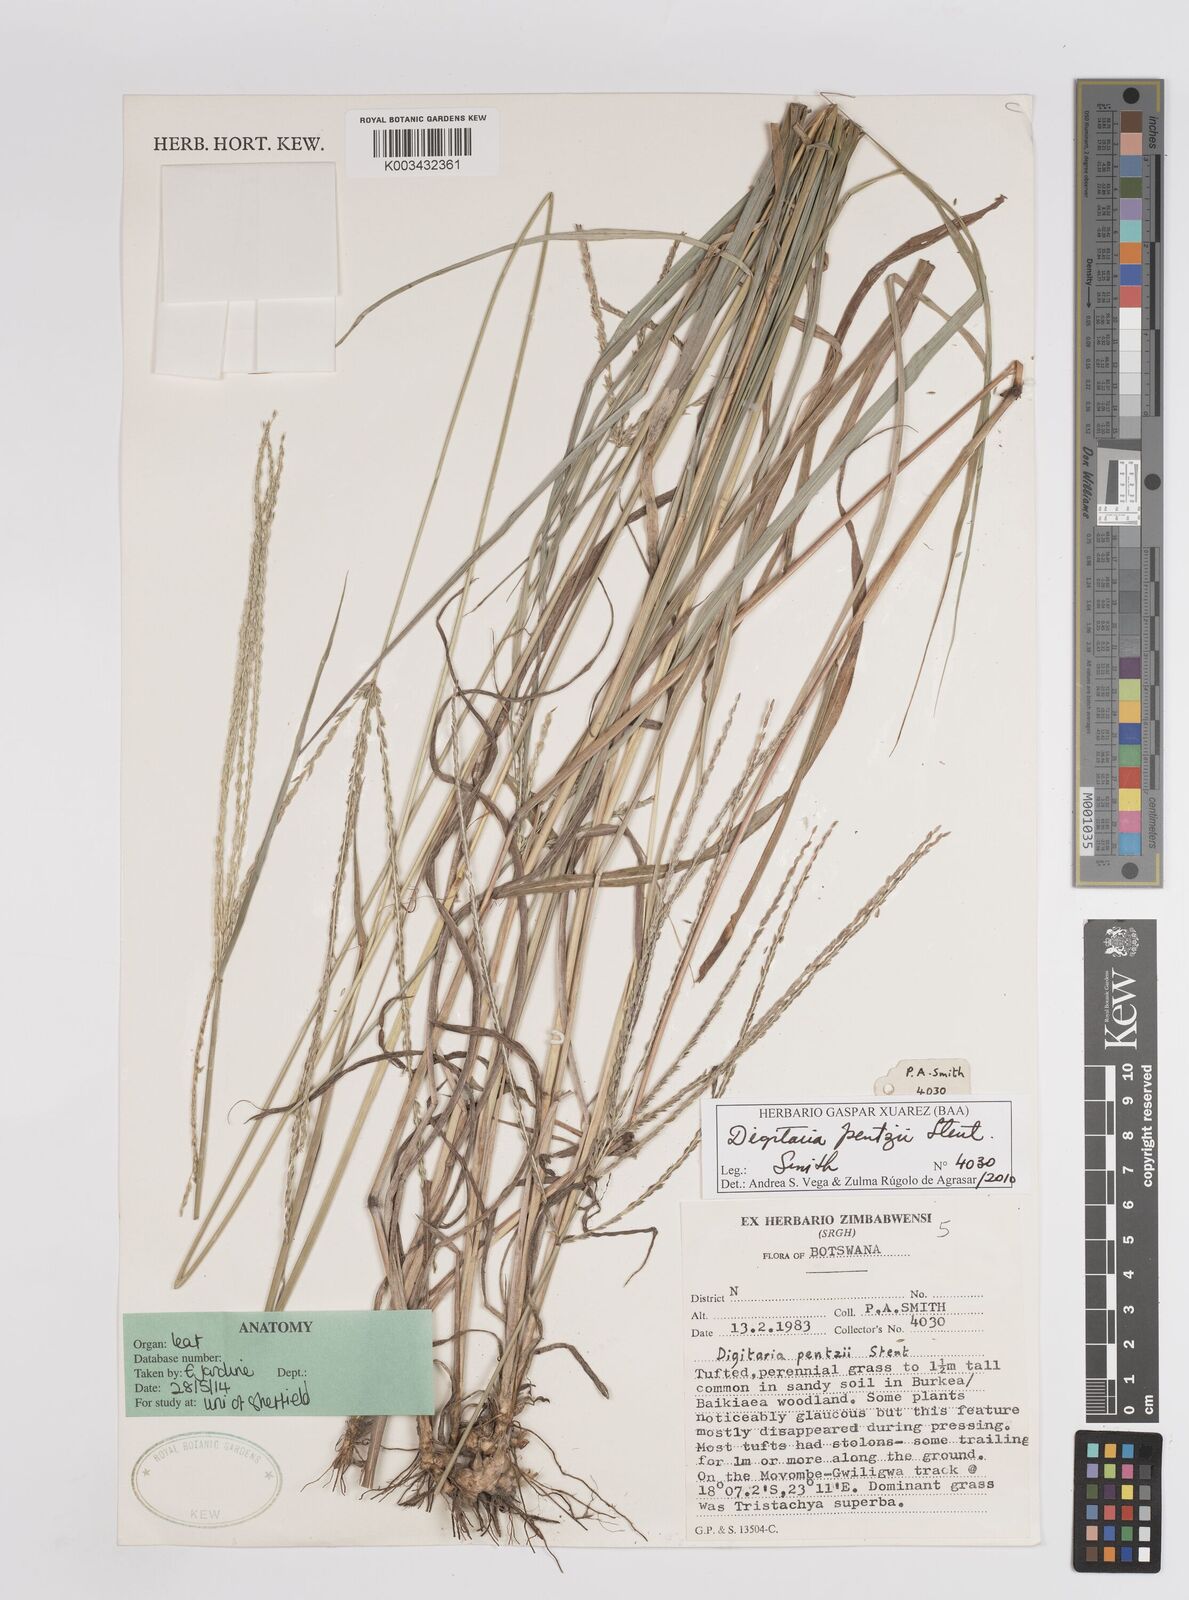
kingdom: Plantae
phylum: Tracheophyta
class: Liliopsida
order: Poales
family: Poaceae
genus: Digitaria
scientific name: Digitaria eriantha
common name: Digitgrass
